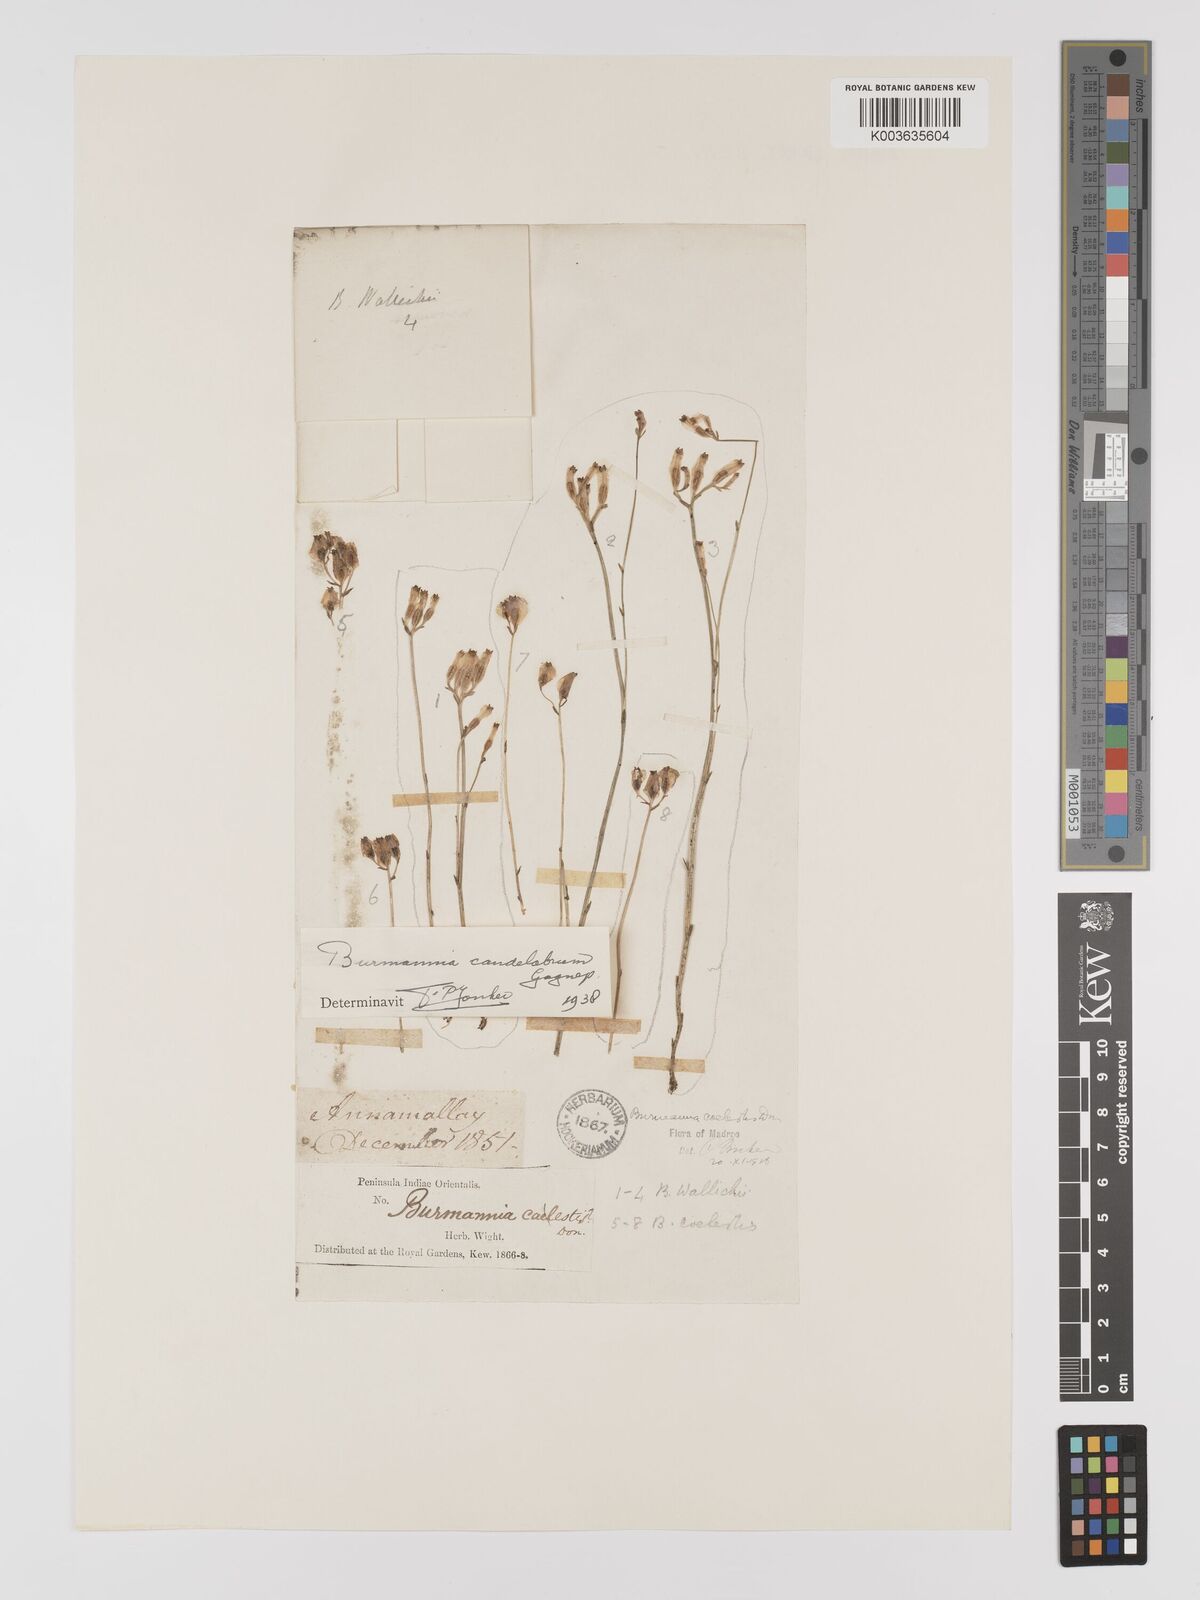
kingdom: Plantae
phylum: Tracheophyta
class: Liliopsida
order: Dioscoreales
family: Burmanniaceae
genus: Burmannia
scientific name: Burmannia candelabrum
